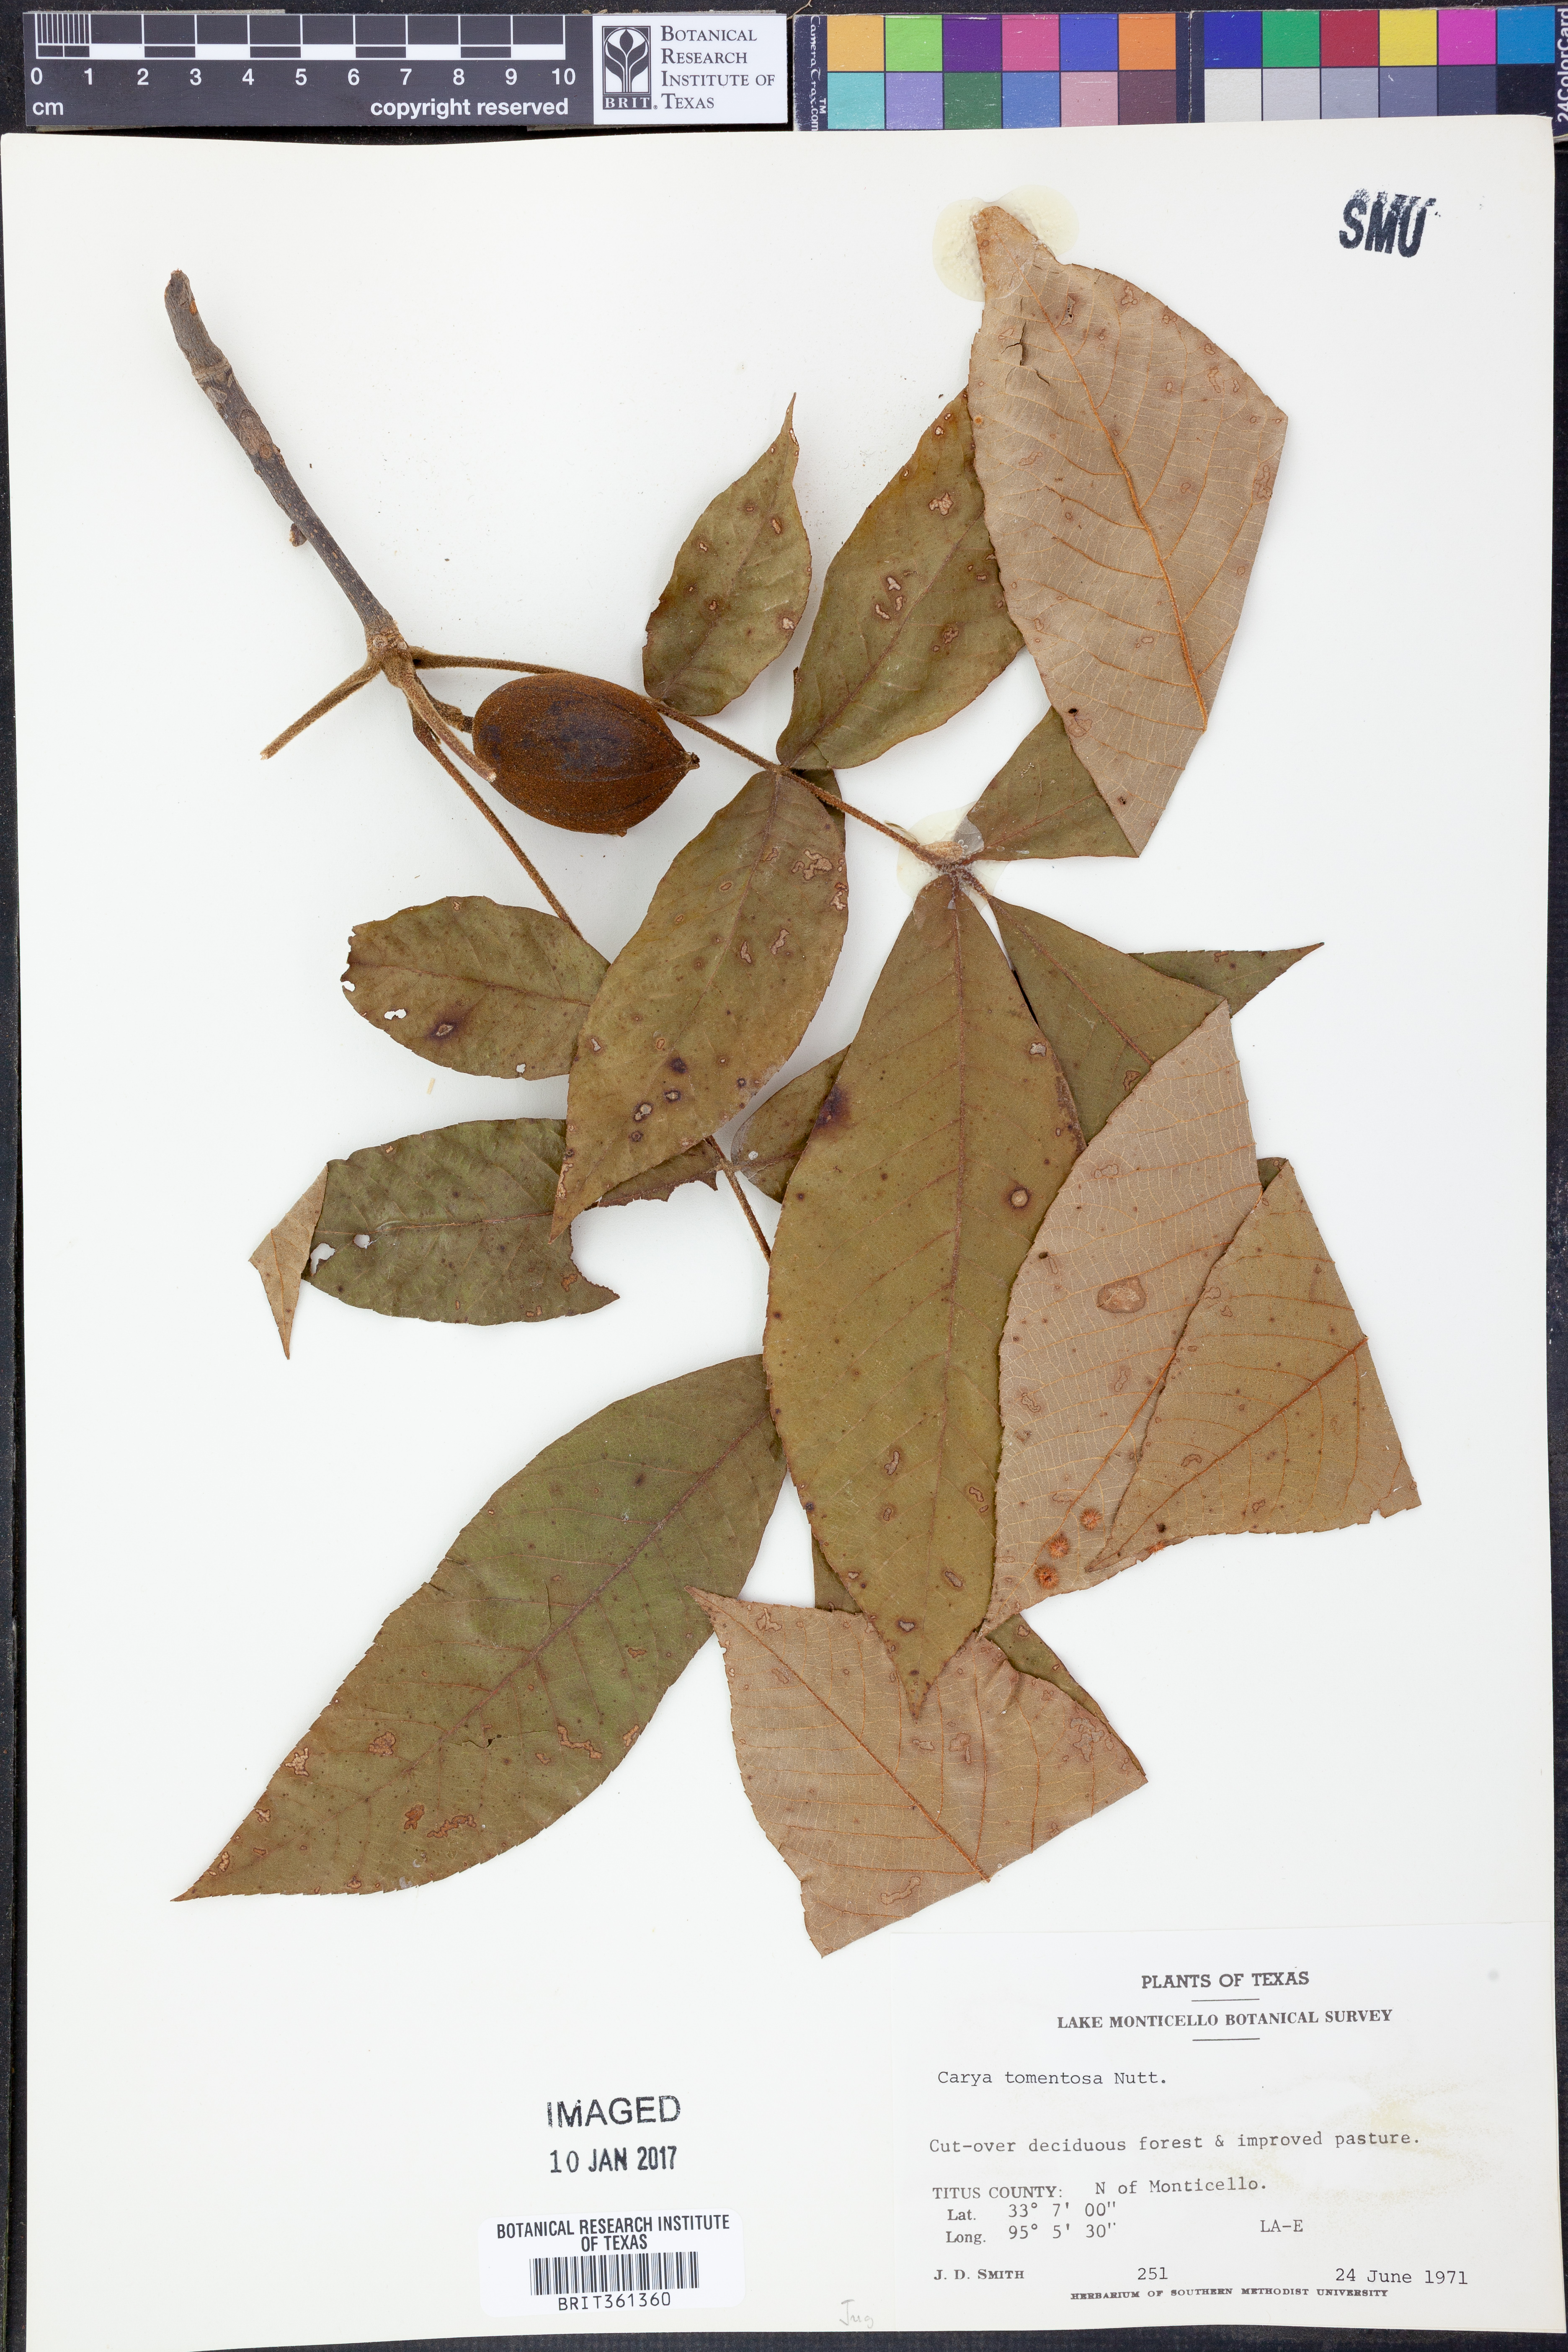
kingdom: Plantae
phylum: Tracheophyta
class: Magnoliopsida
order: Fagales
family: Juglandaceae
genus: Carya
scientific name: Carya alba
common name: Mockernut hickory
